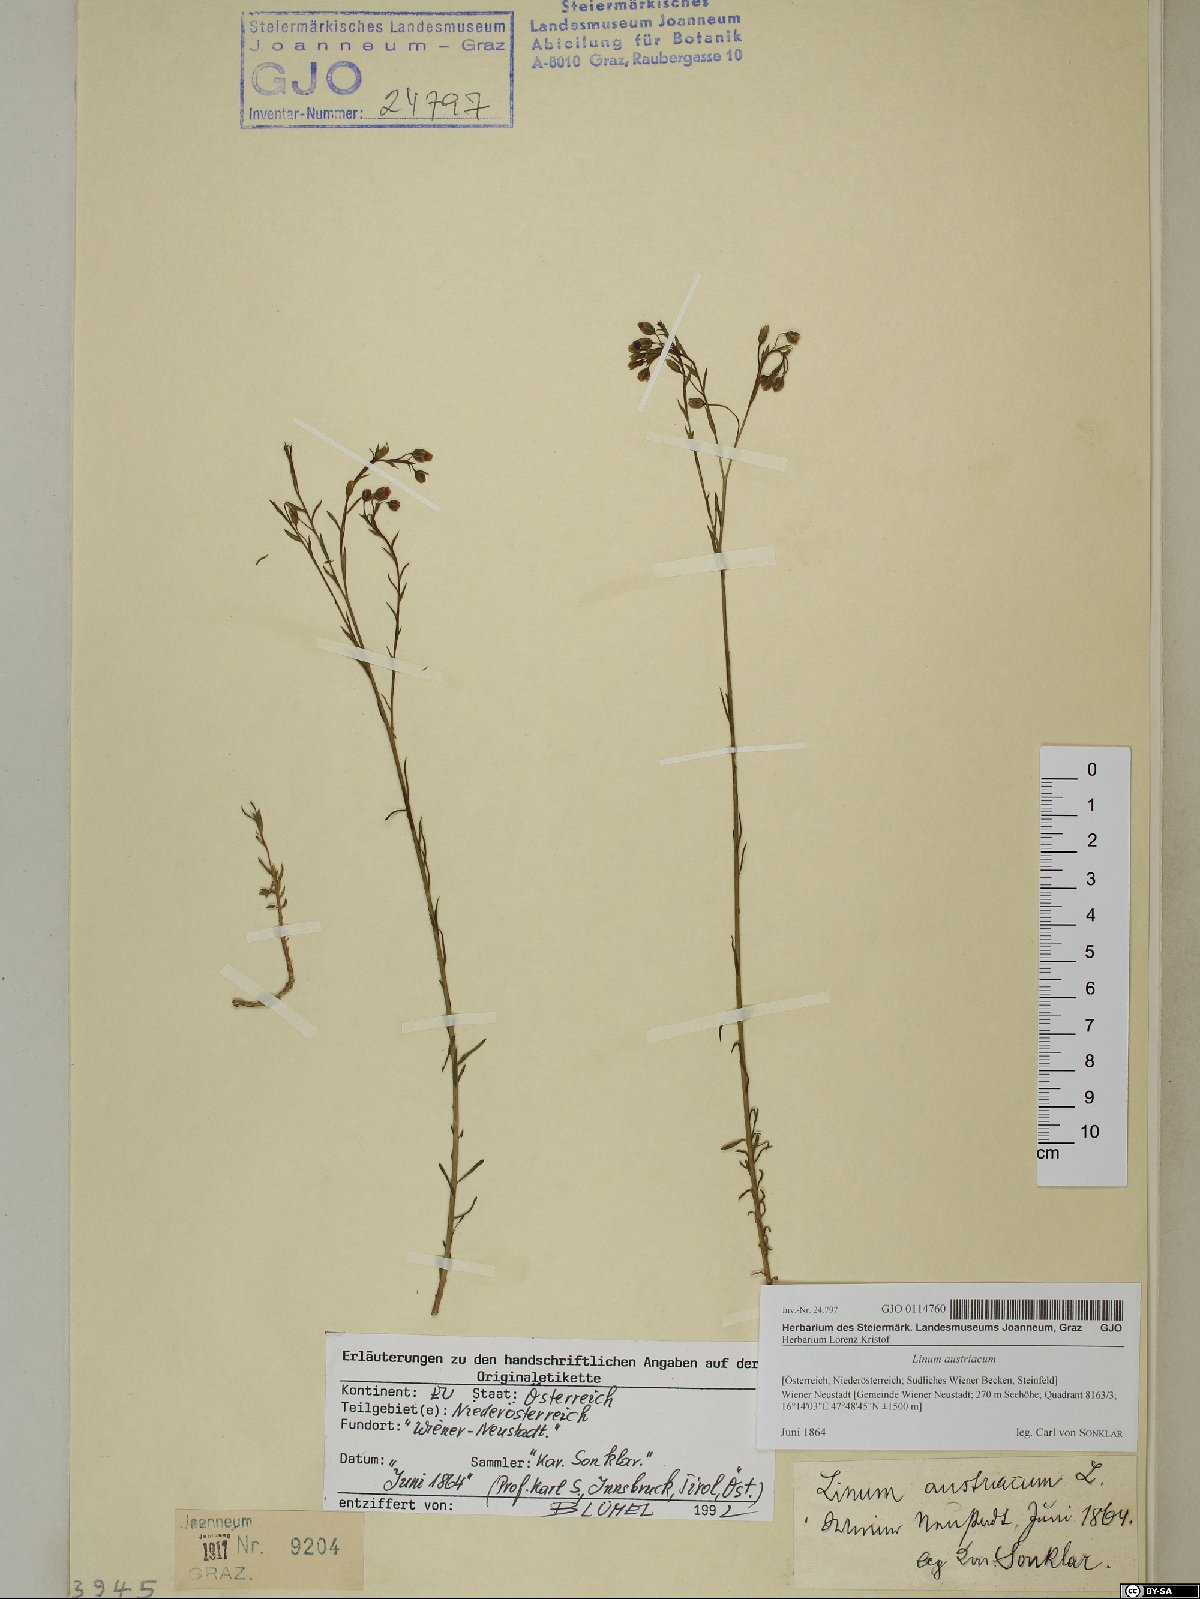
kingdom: Plantae
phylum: Tracheophyta
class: Magnoliopsida
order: Malpighiales
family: Linaceae
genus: Linum
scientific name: Linum austriacum
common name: Austrian flax
